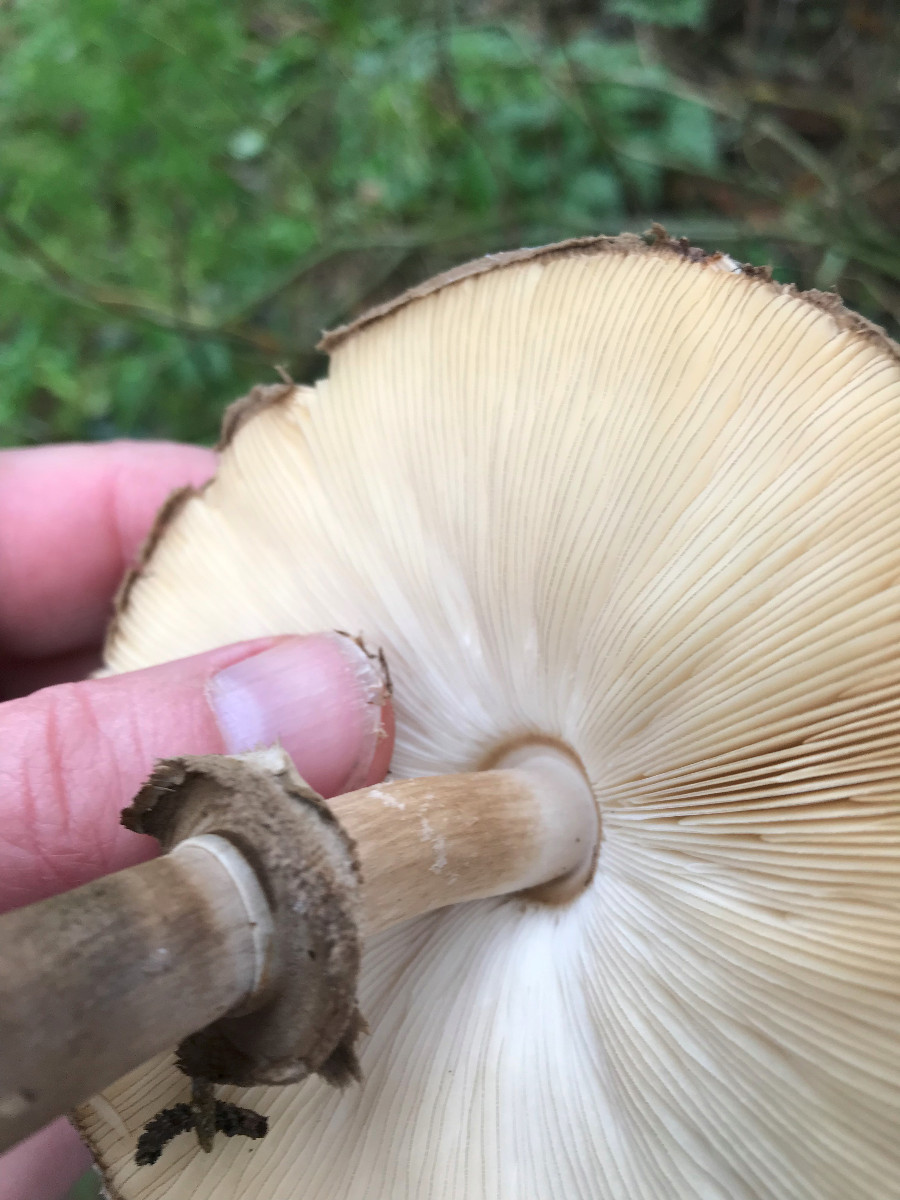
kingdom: Fungi
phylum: Basidiomycota
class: Agaricomycetes
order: Agaricales
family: Agaricaceae
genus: Chlorophyllum
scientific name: Chlorophyllum olivieri
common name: almindelig rabarberhat
